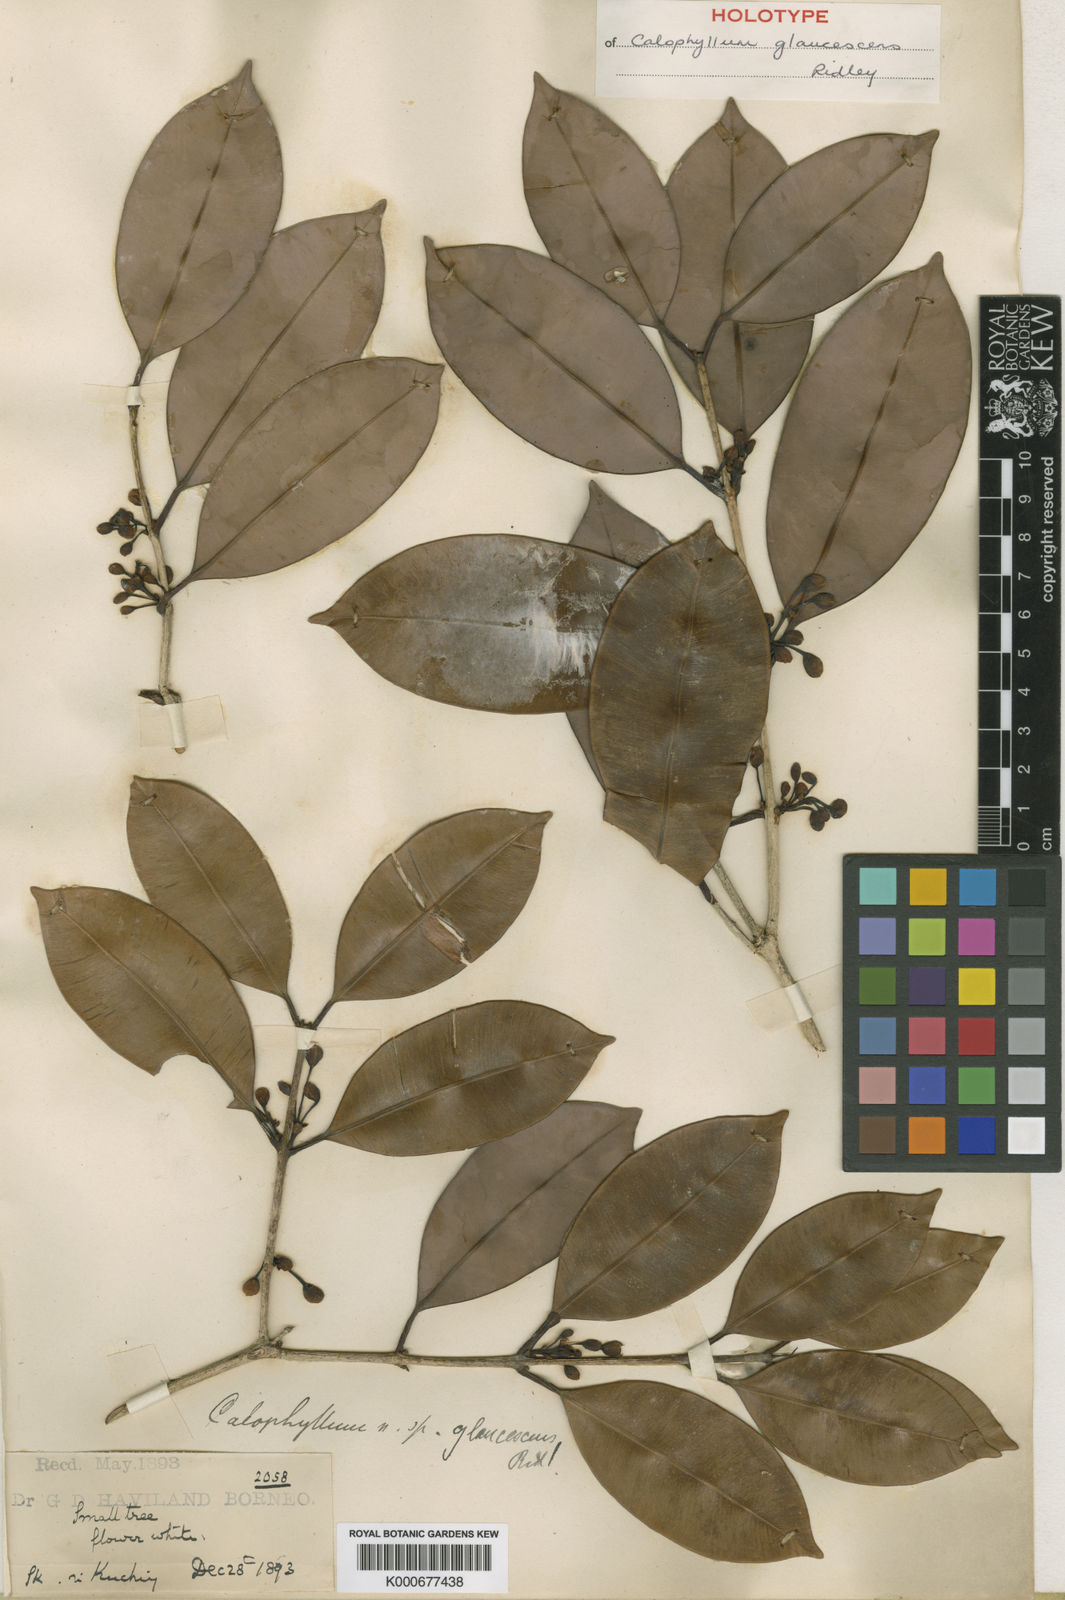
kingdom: Plantae
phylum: Tracheophyta
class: Magnoliopsida
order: Malpighiales
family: Calophyllaceae
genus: Calophyllum
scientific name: Calophyllum glaucescens
